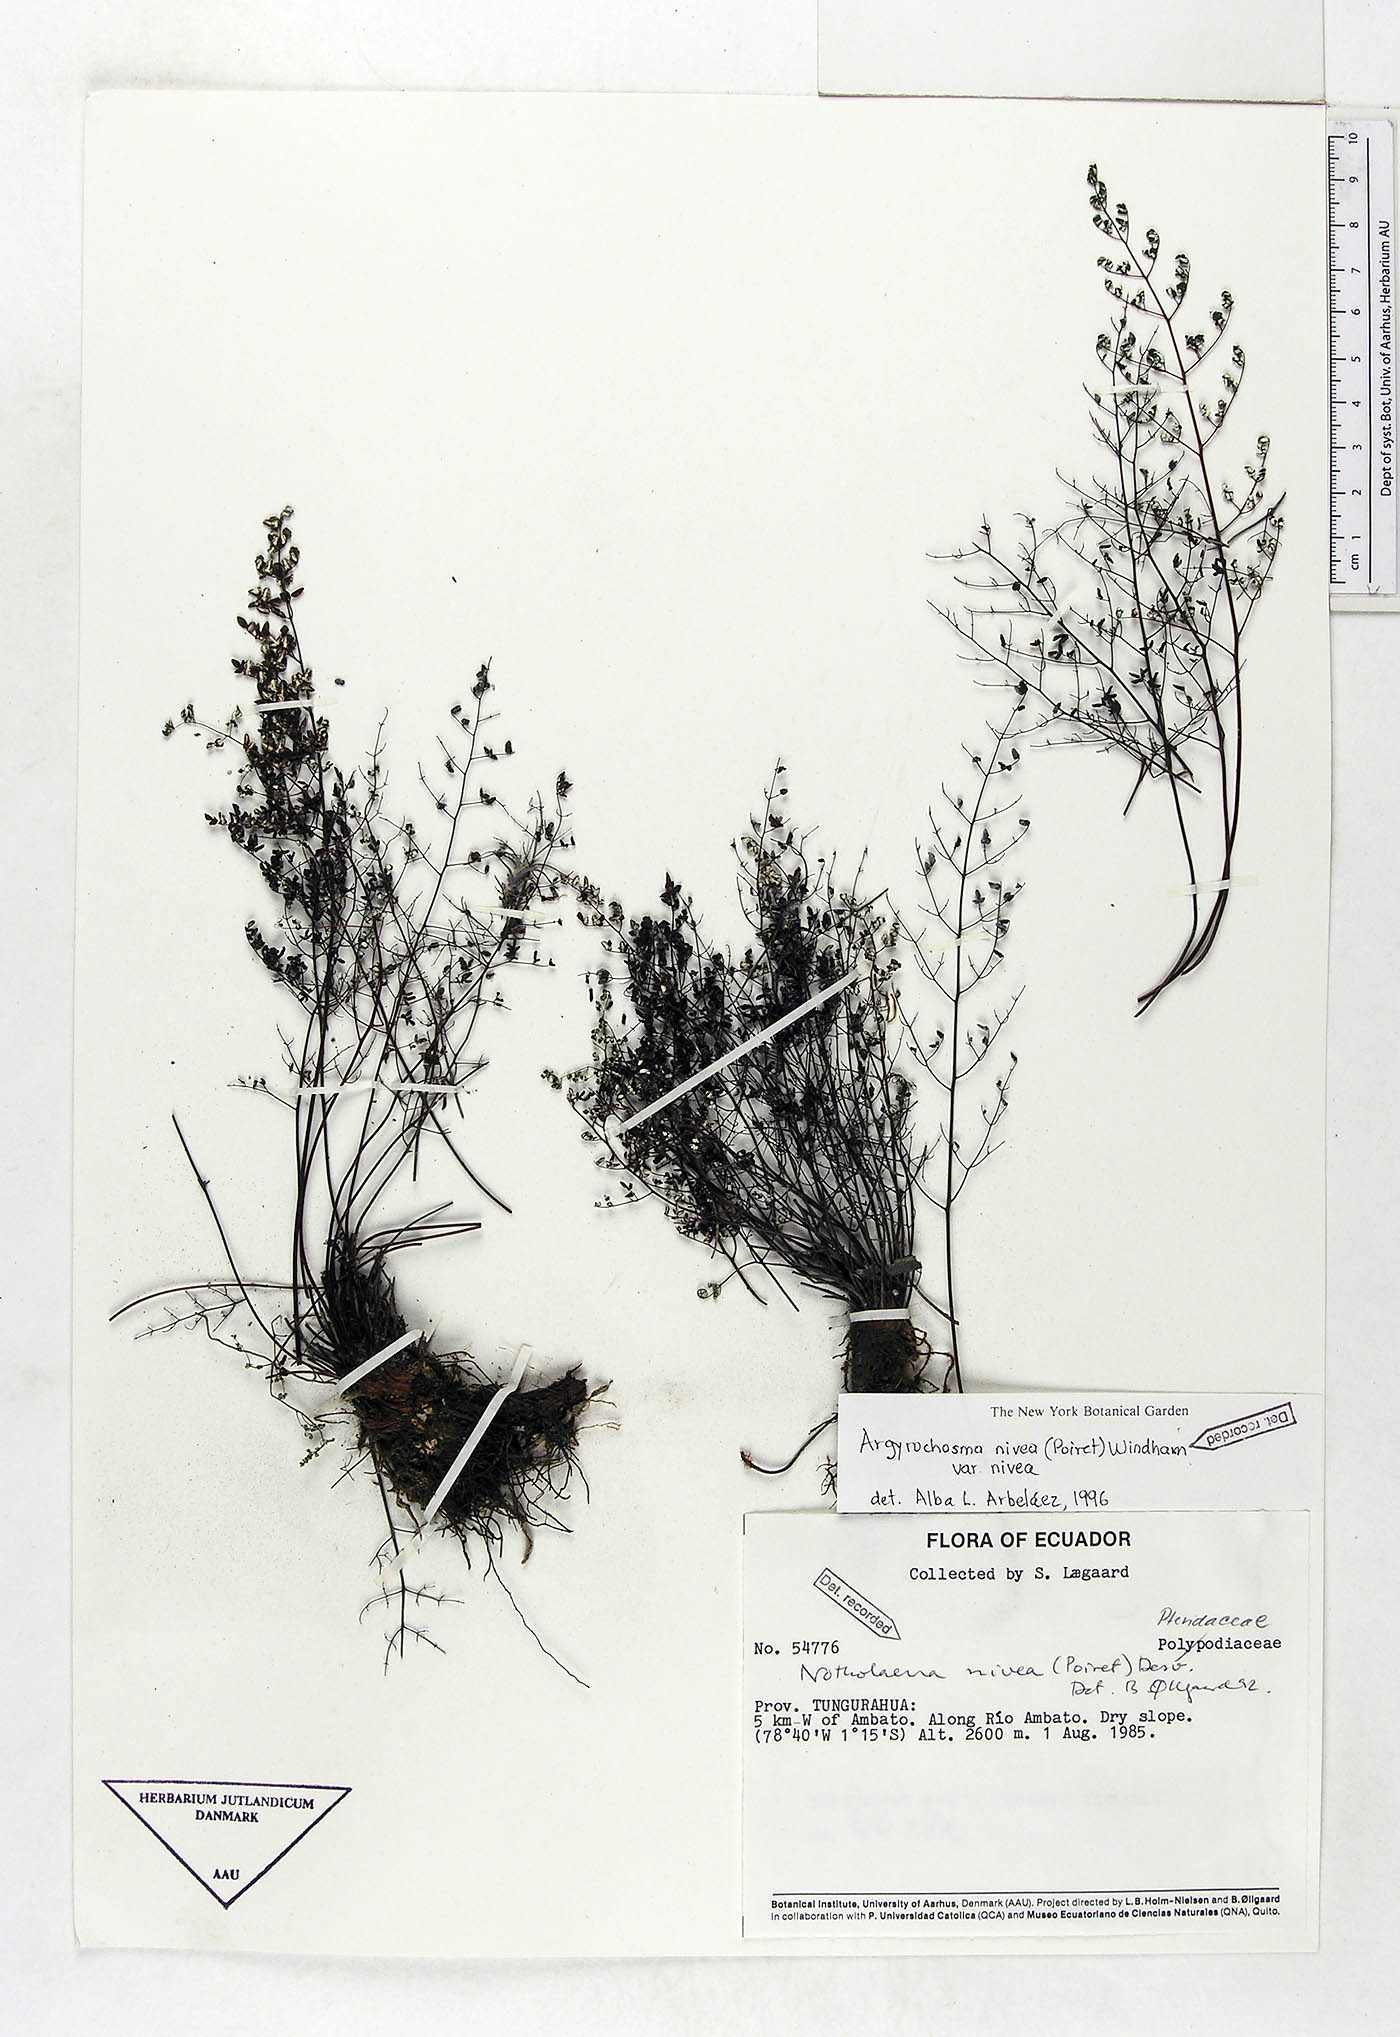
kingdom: Plantae
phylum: Tracheophyta
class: Polypodiopsida
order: Polypodiales
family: Pteridaceae
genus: Argyrochosma
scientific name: Argyrochosma nivea
